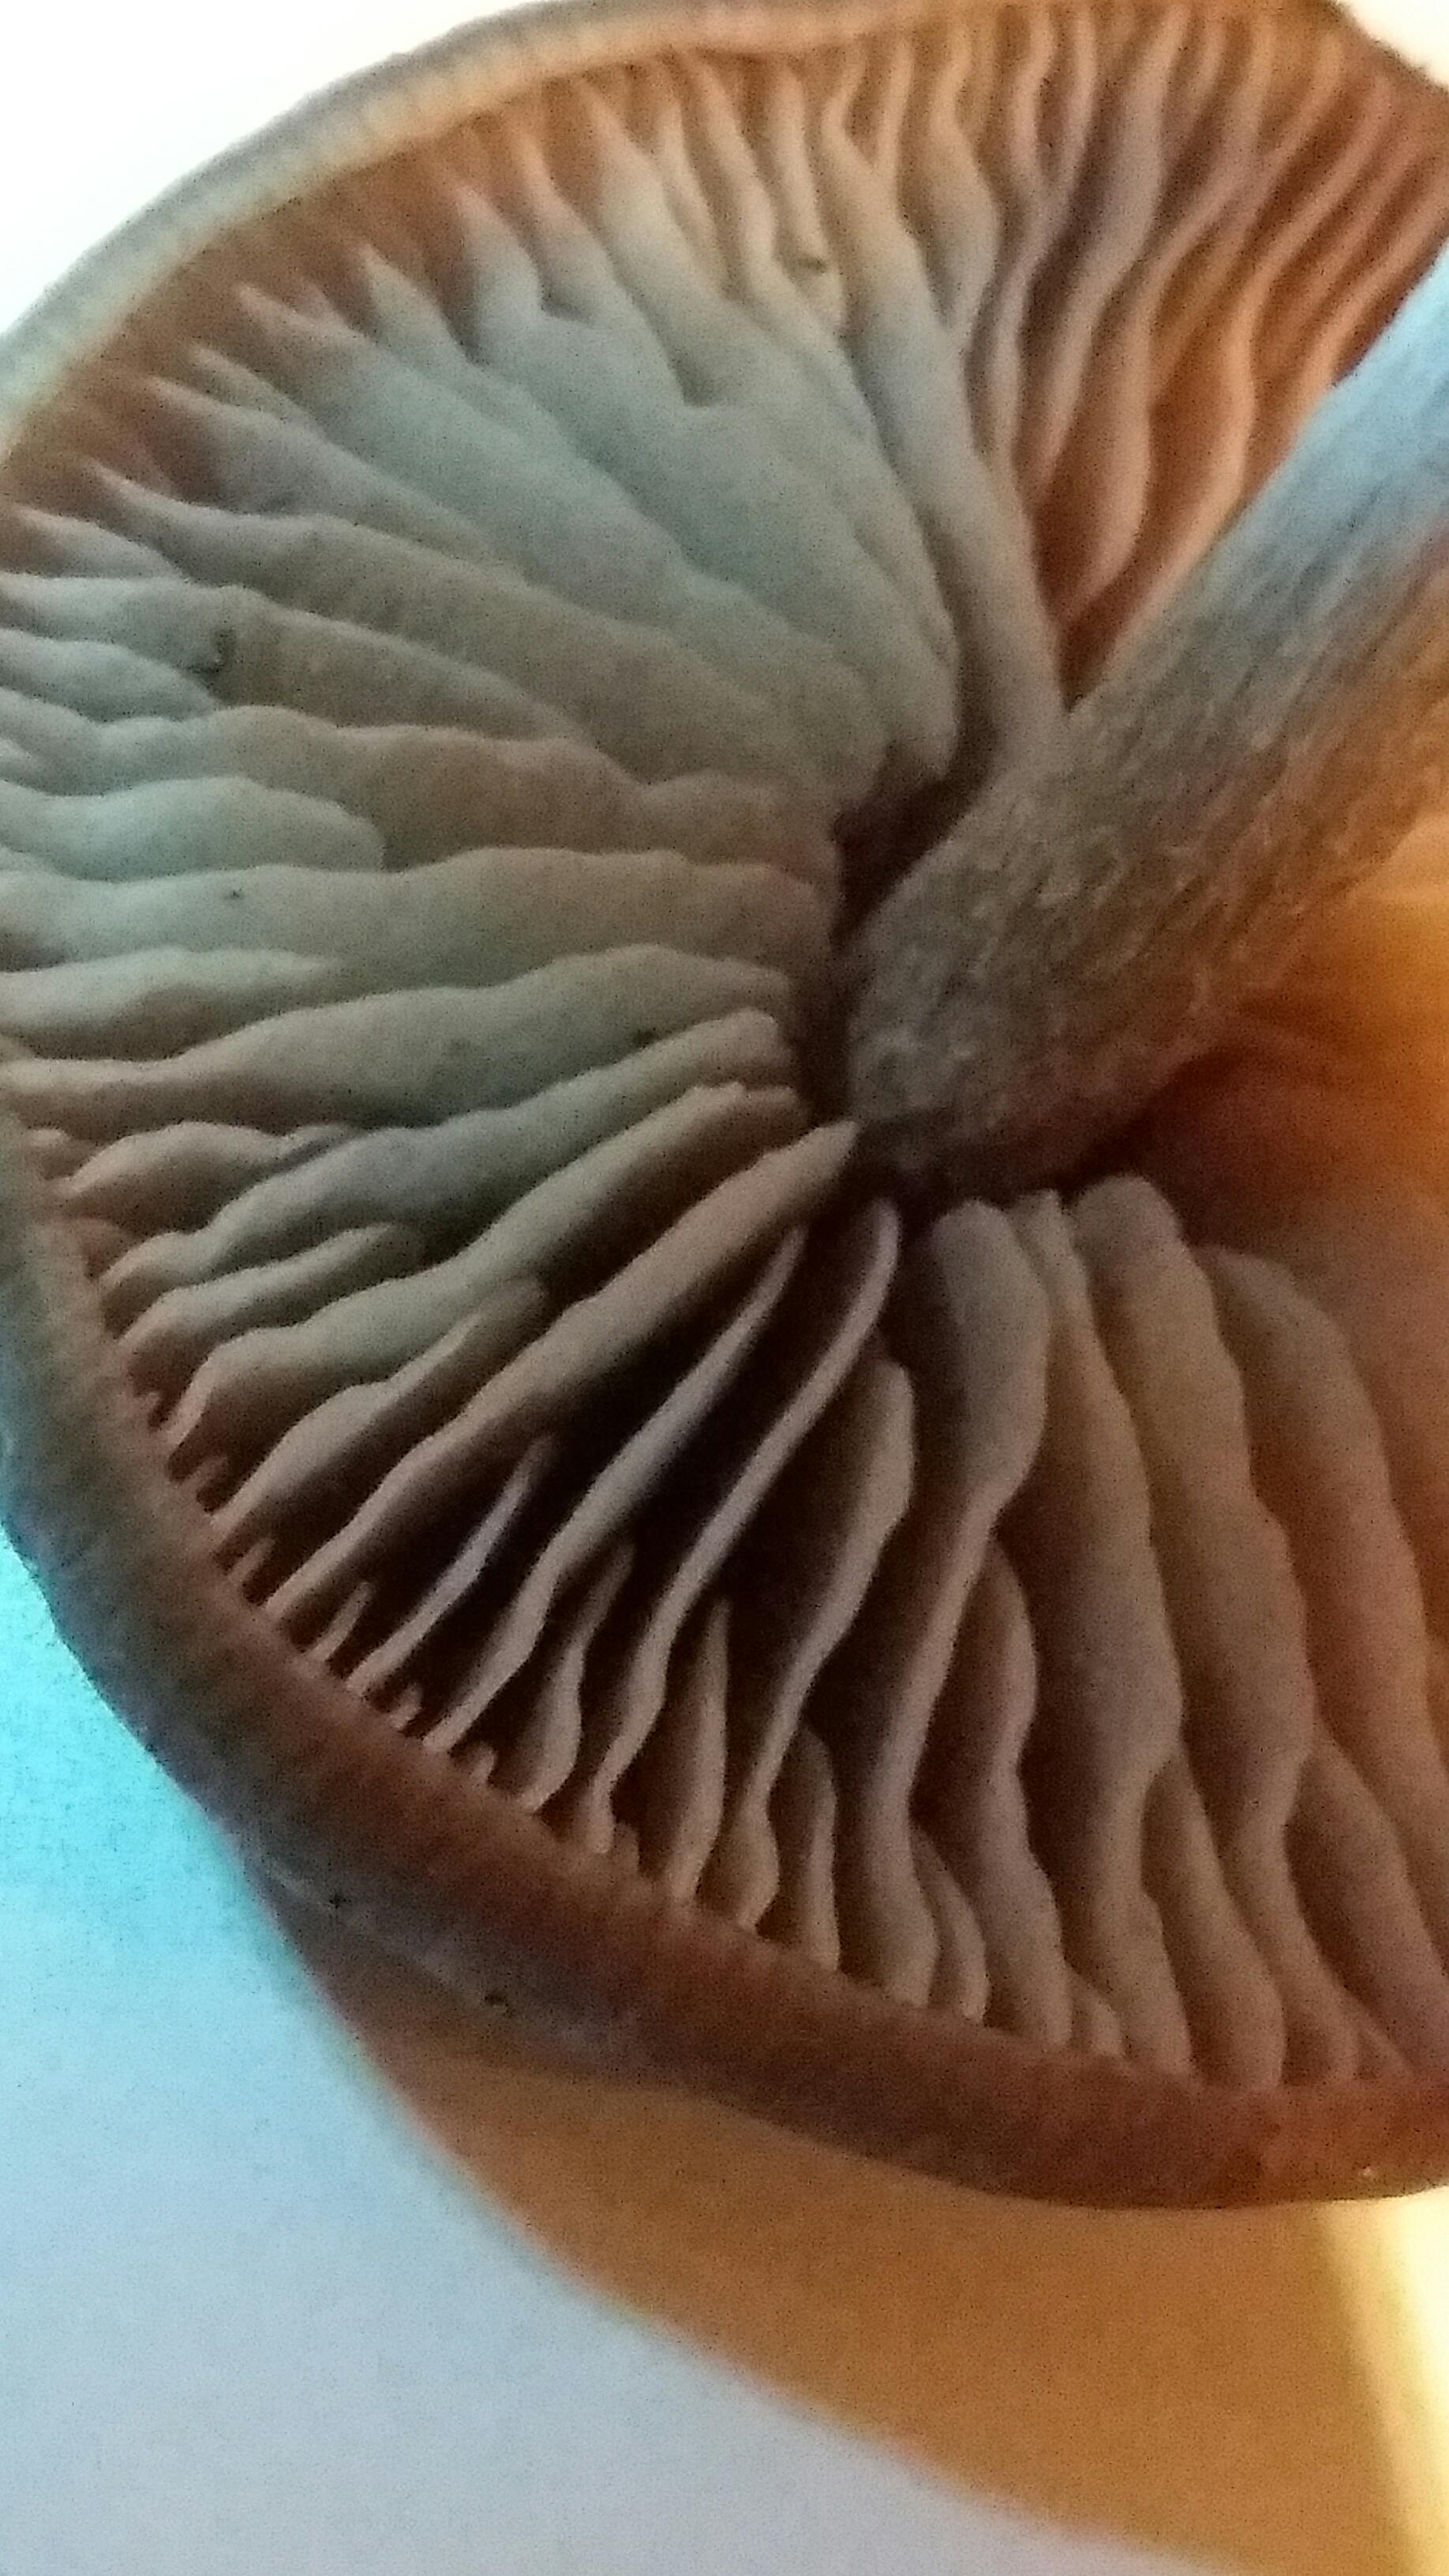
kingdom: Fungi
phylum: Basidiomycota
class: Agaricomycetes
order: Agaricales
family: Entolomataceae
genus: Entoloma
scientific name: Entoloma
